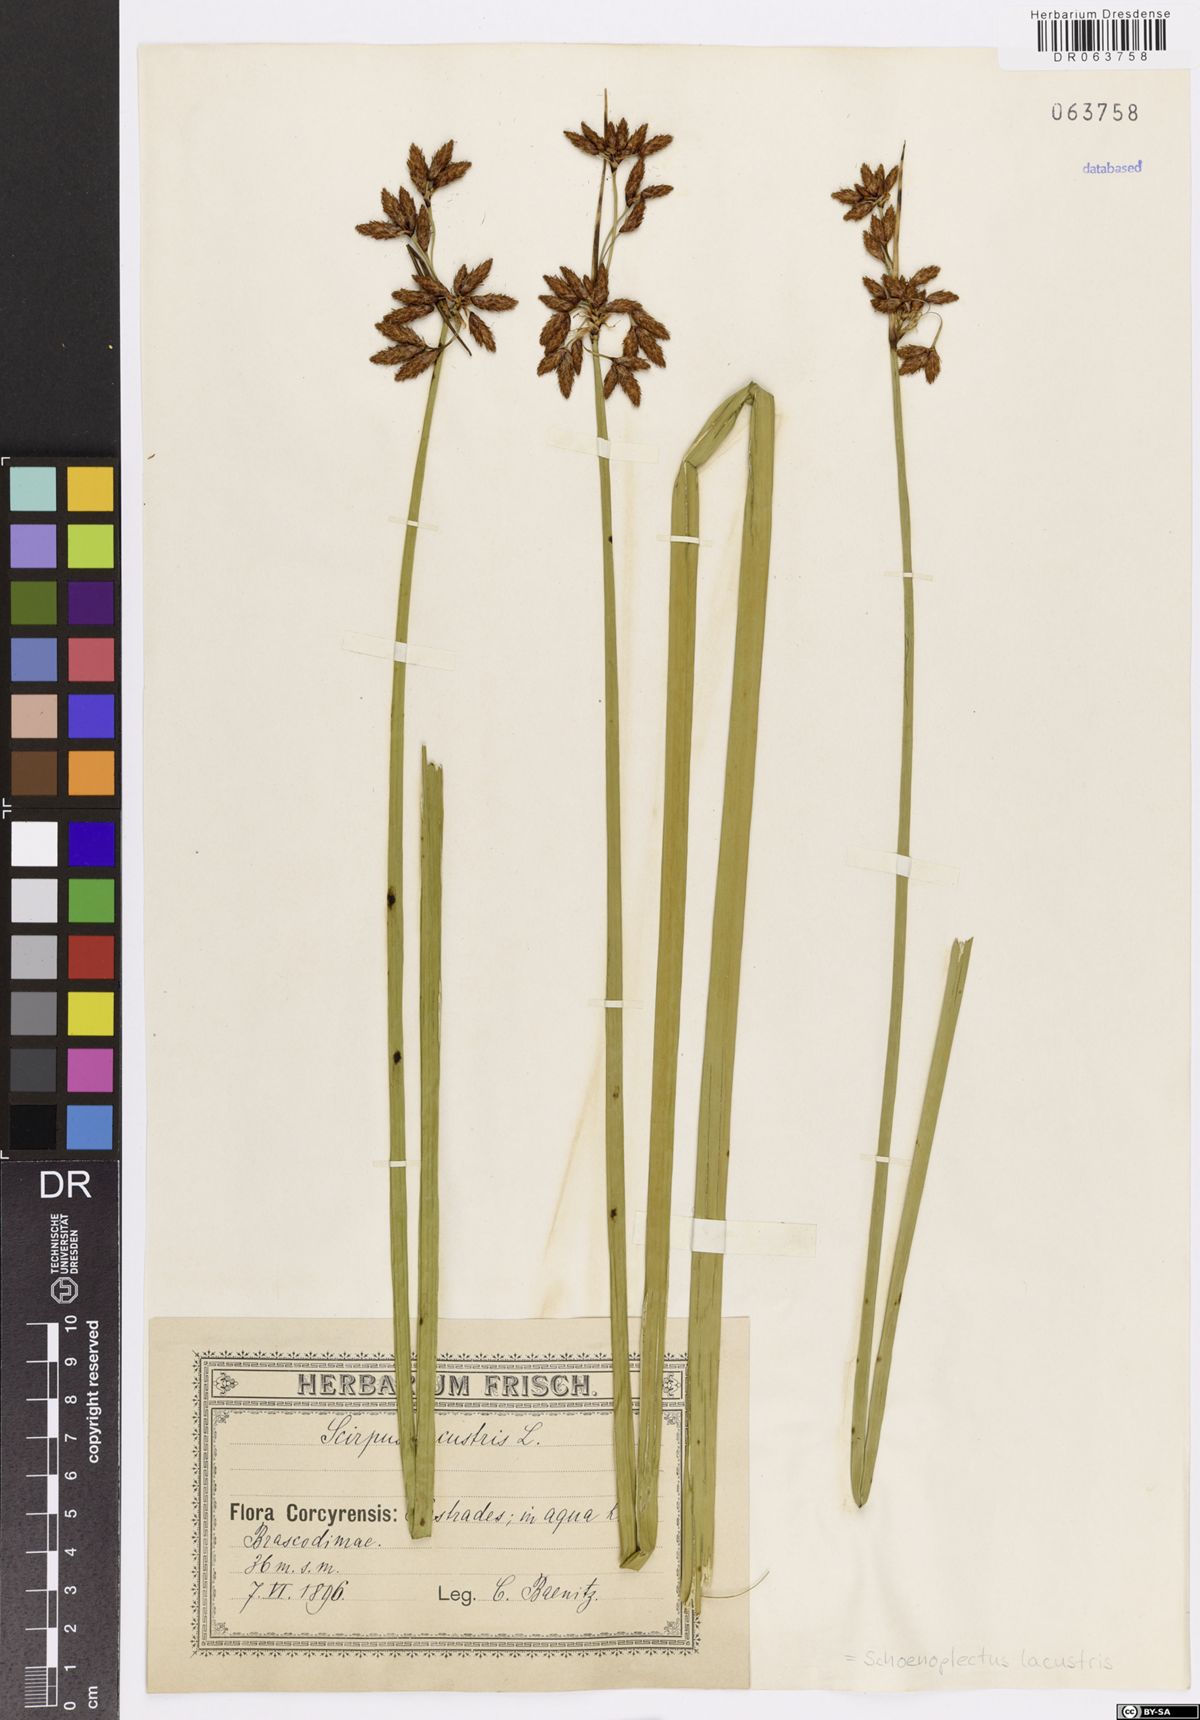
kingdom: Plantae
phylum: Tracheophyta
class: Liliopsida
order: Poales
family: Cyperaceae
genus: Schoenoplectus
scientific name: Schoenoplectus lacustris
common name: Common club-rush
